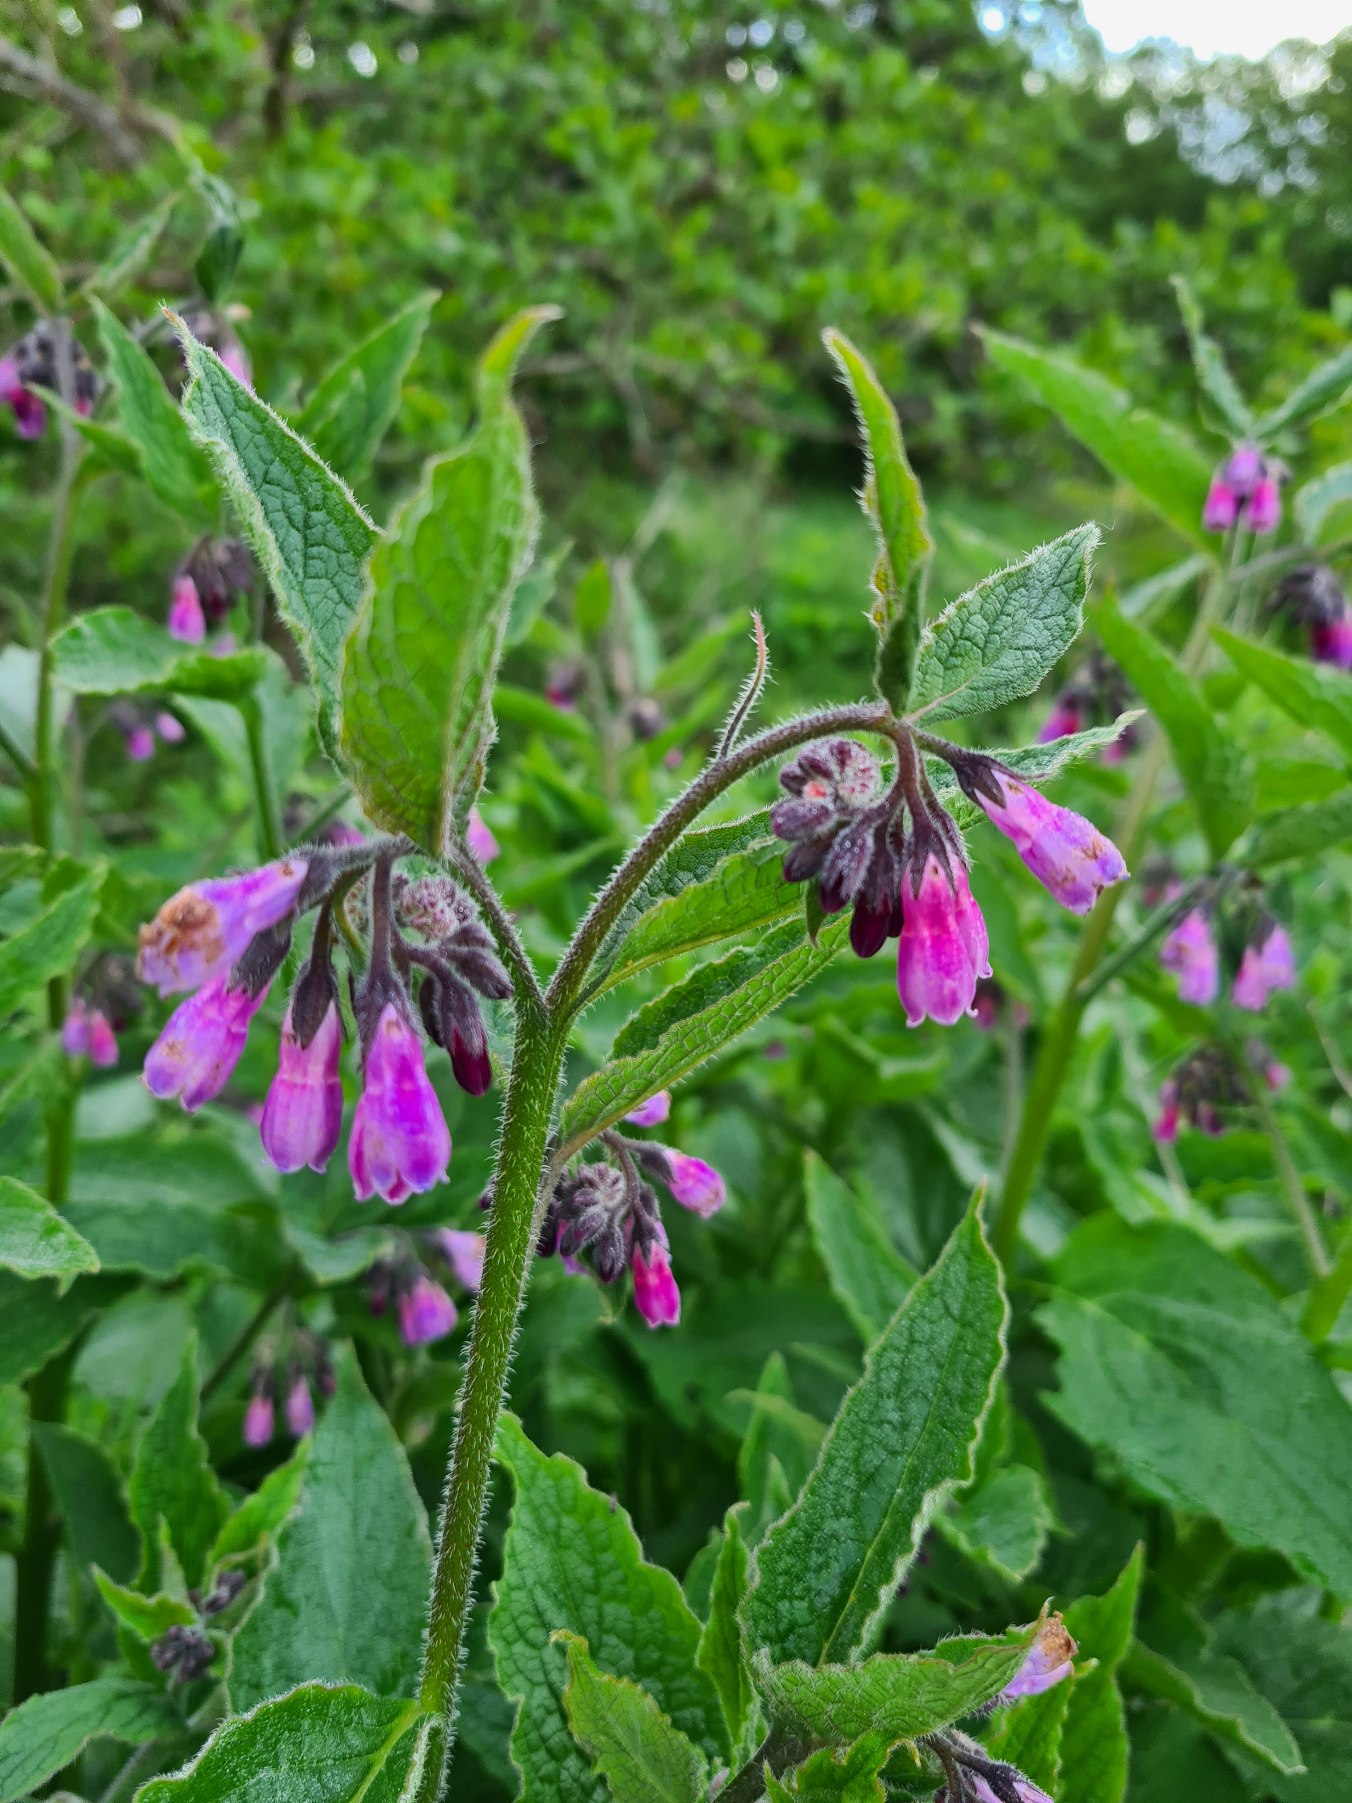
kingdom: Plantae
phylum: Tracheophyta
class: Magnoliopsida
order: Boraginales
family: Boraginaceae
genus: Symphytum
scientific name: Symphytum uplandicum
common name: Foder-kulsukker
